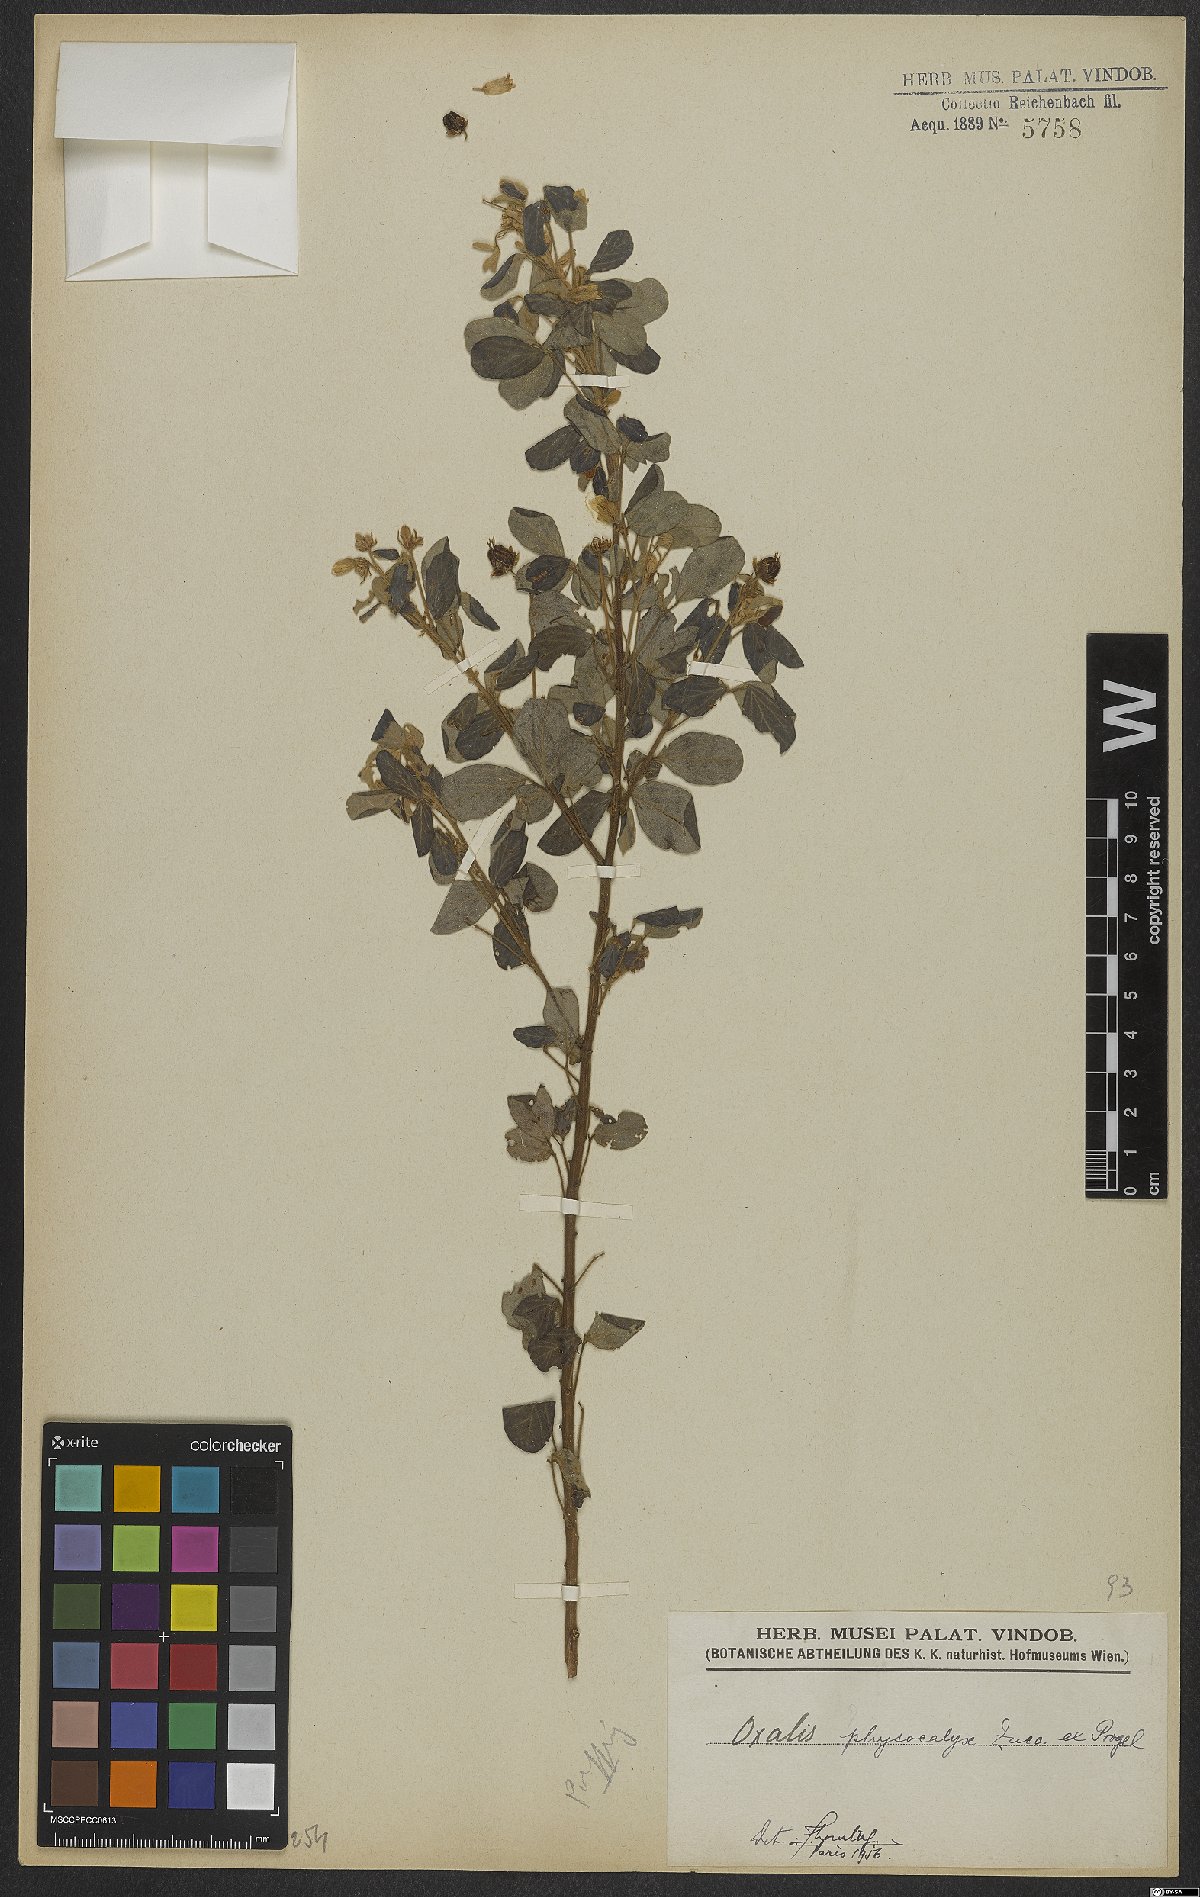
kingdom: Plantae
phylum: Tracheophyta
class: Magnoliopsida
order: Oxalidales
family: Oxalidaceae
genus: Oxalis
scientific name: Oxalis physocalyx
